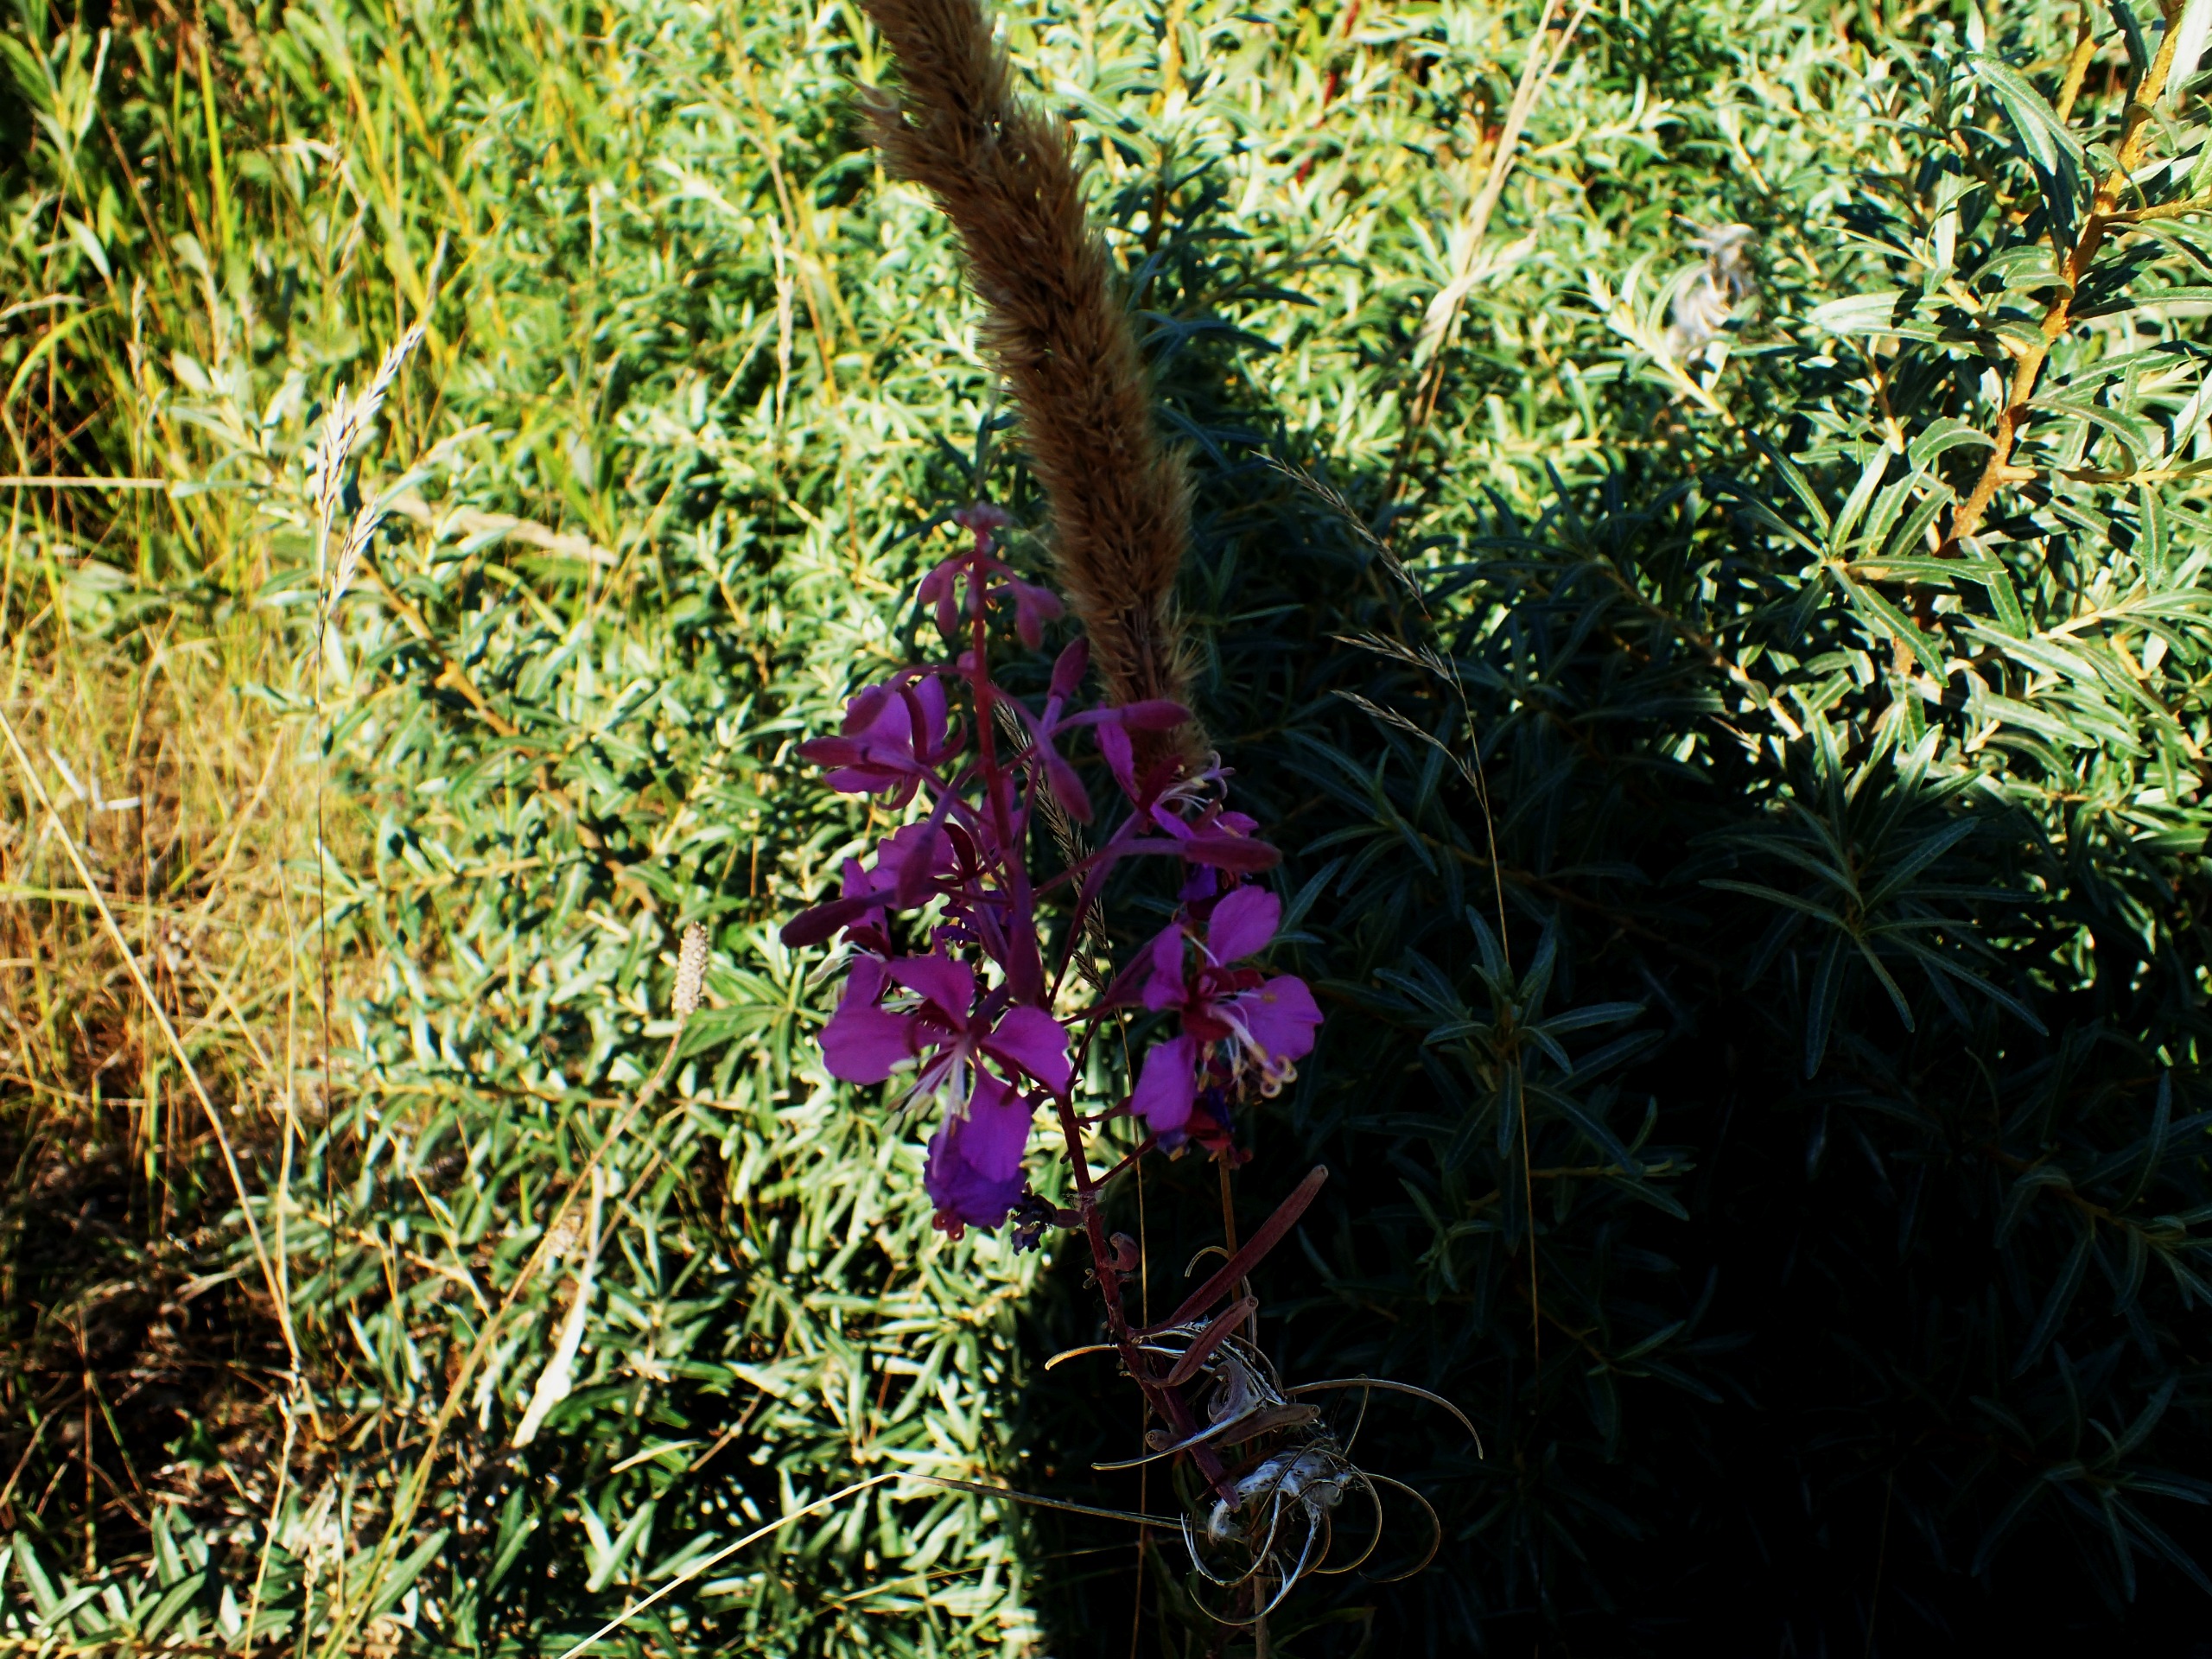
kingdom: Plantae
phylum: Tracheophyta
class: Magnoliopsida
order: Myrtales
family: Onagraceae
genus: Chamaenerion
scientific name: Chamaenerion angustifolium
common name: Gederams
